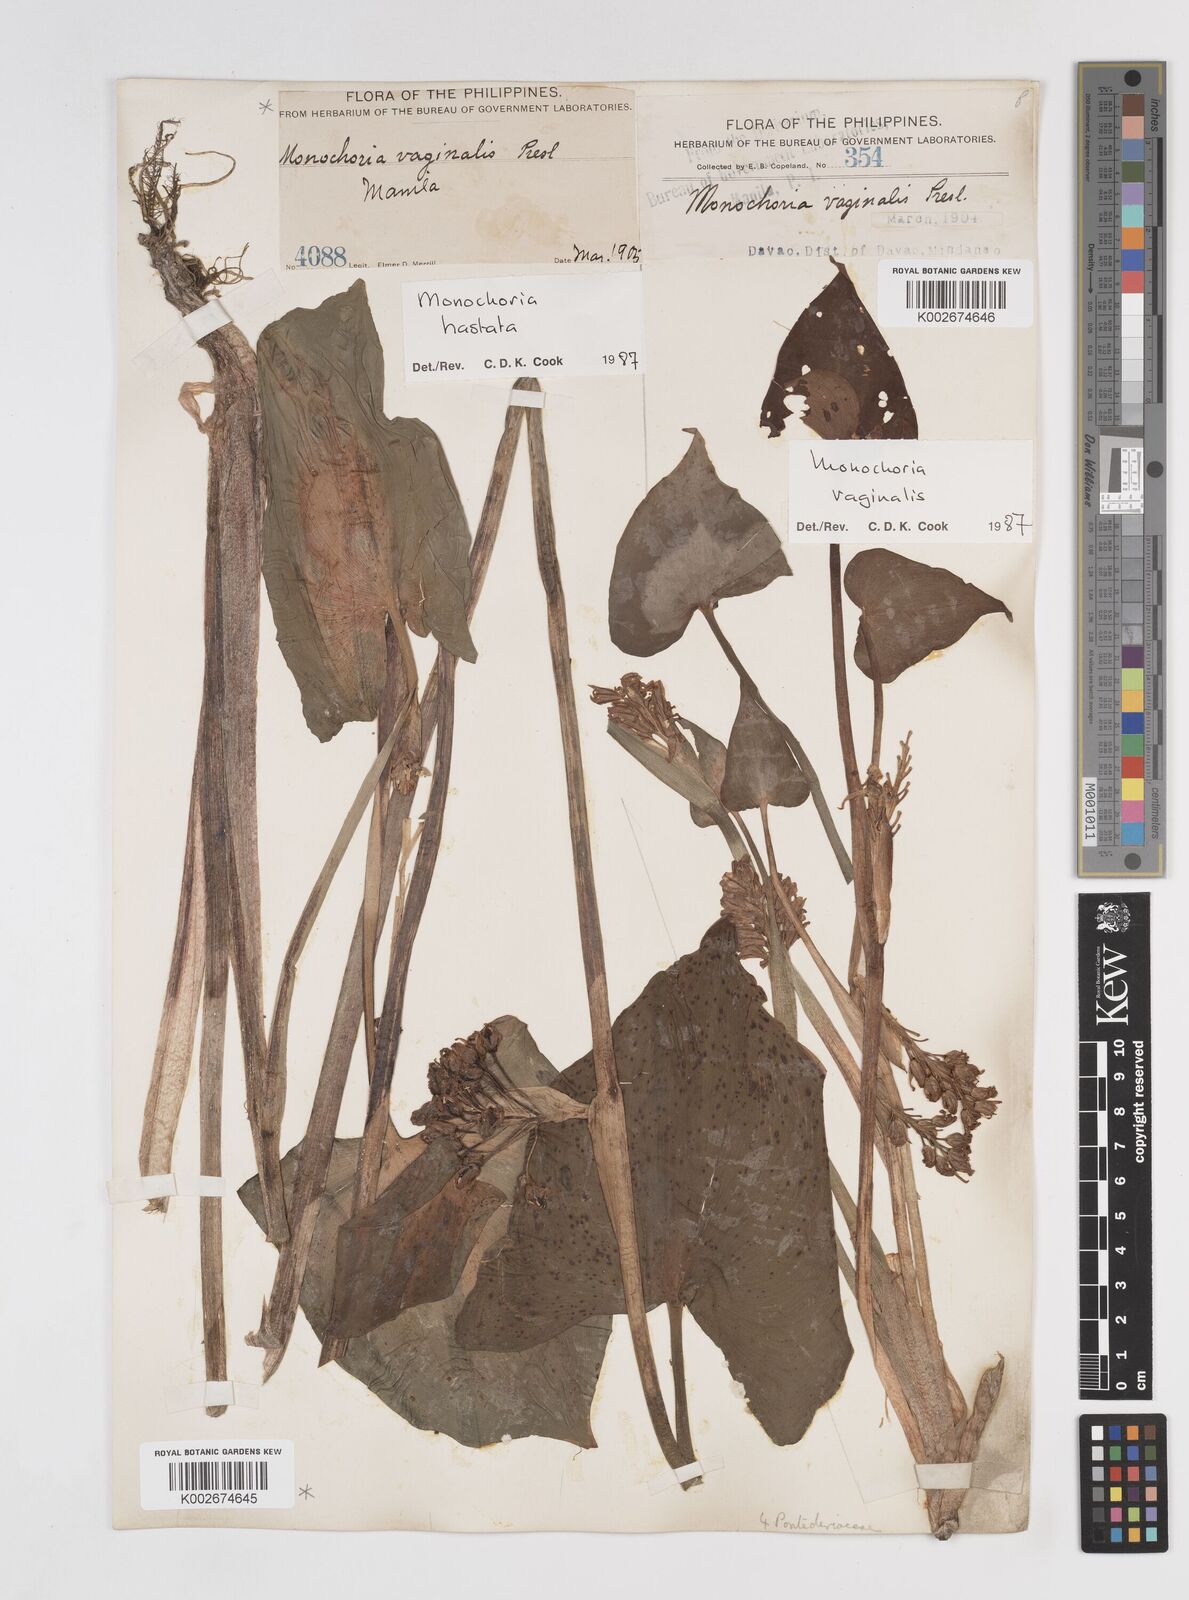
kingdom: Plantae
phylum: Tracheophyta
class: Liliopsida
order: Commelinales
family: Pontederiaceae
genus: Pontederia
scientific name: Pontederia hastata
